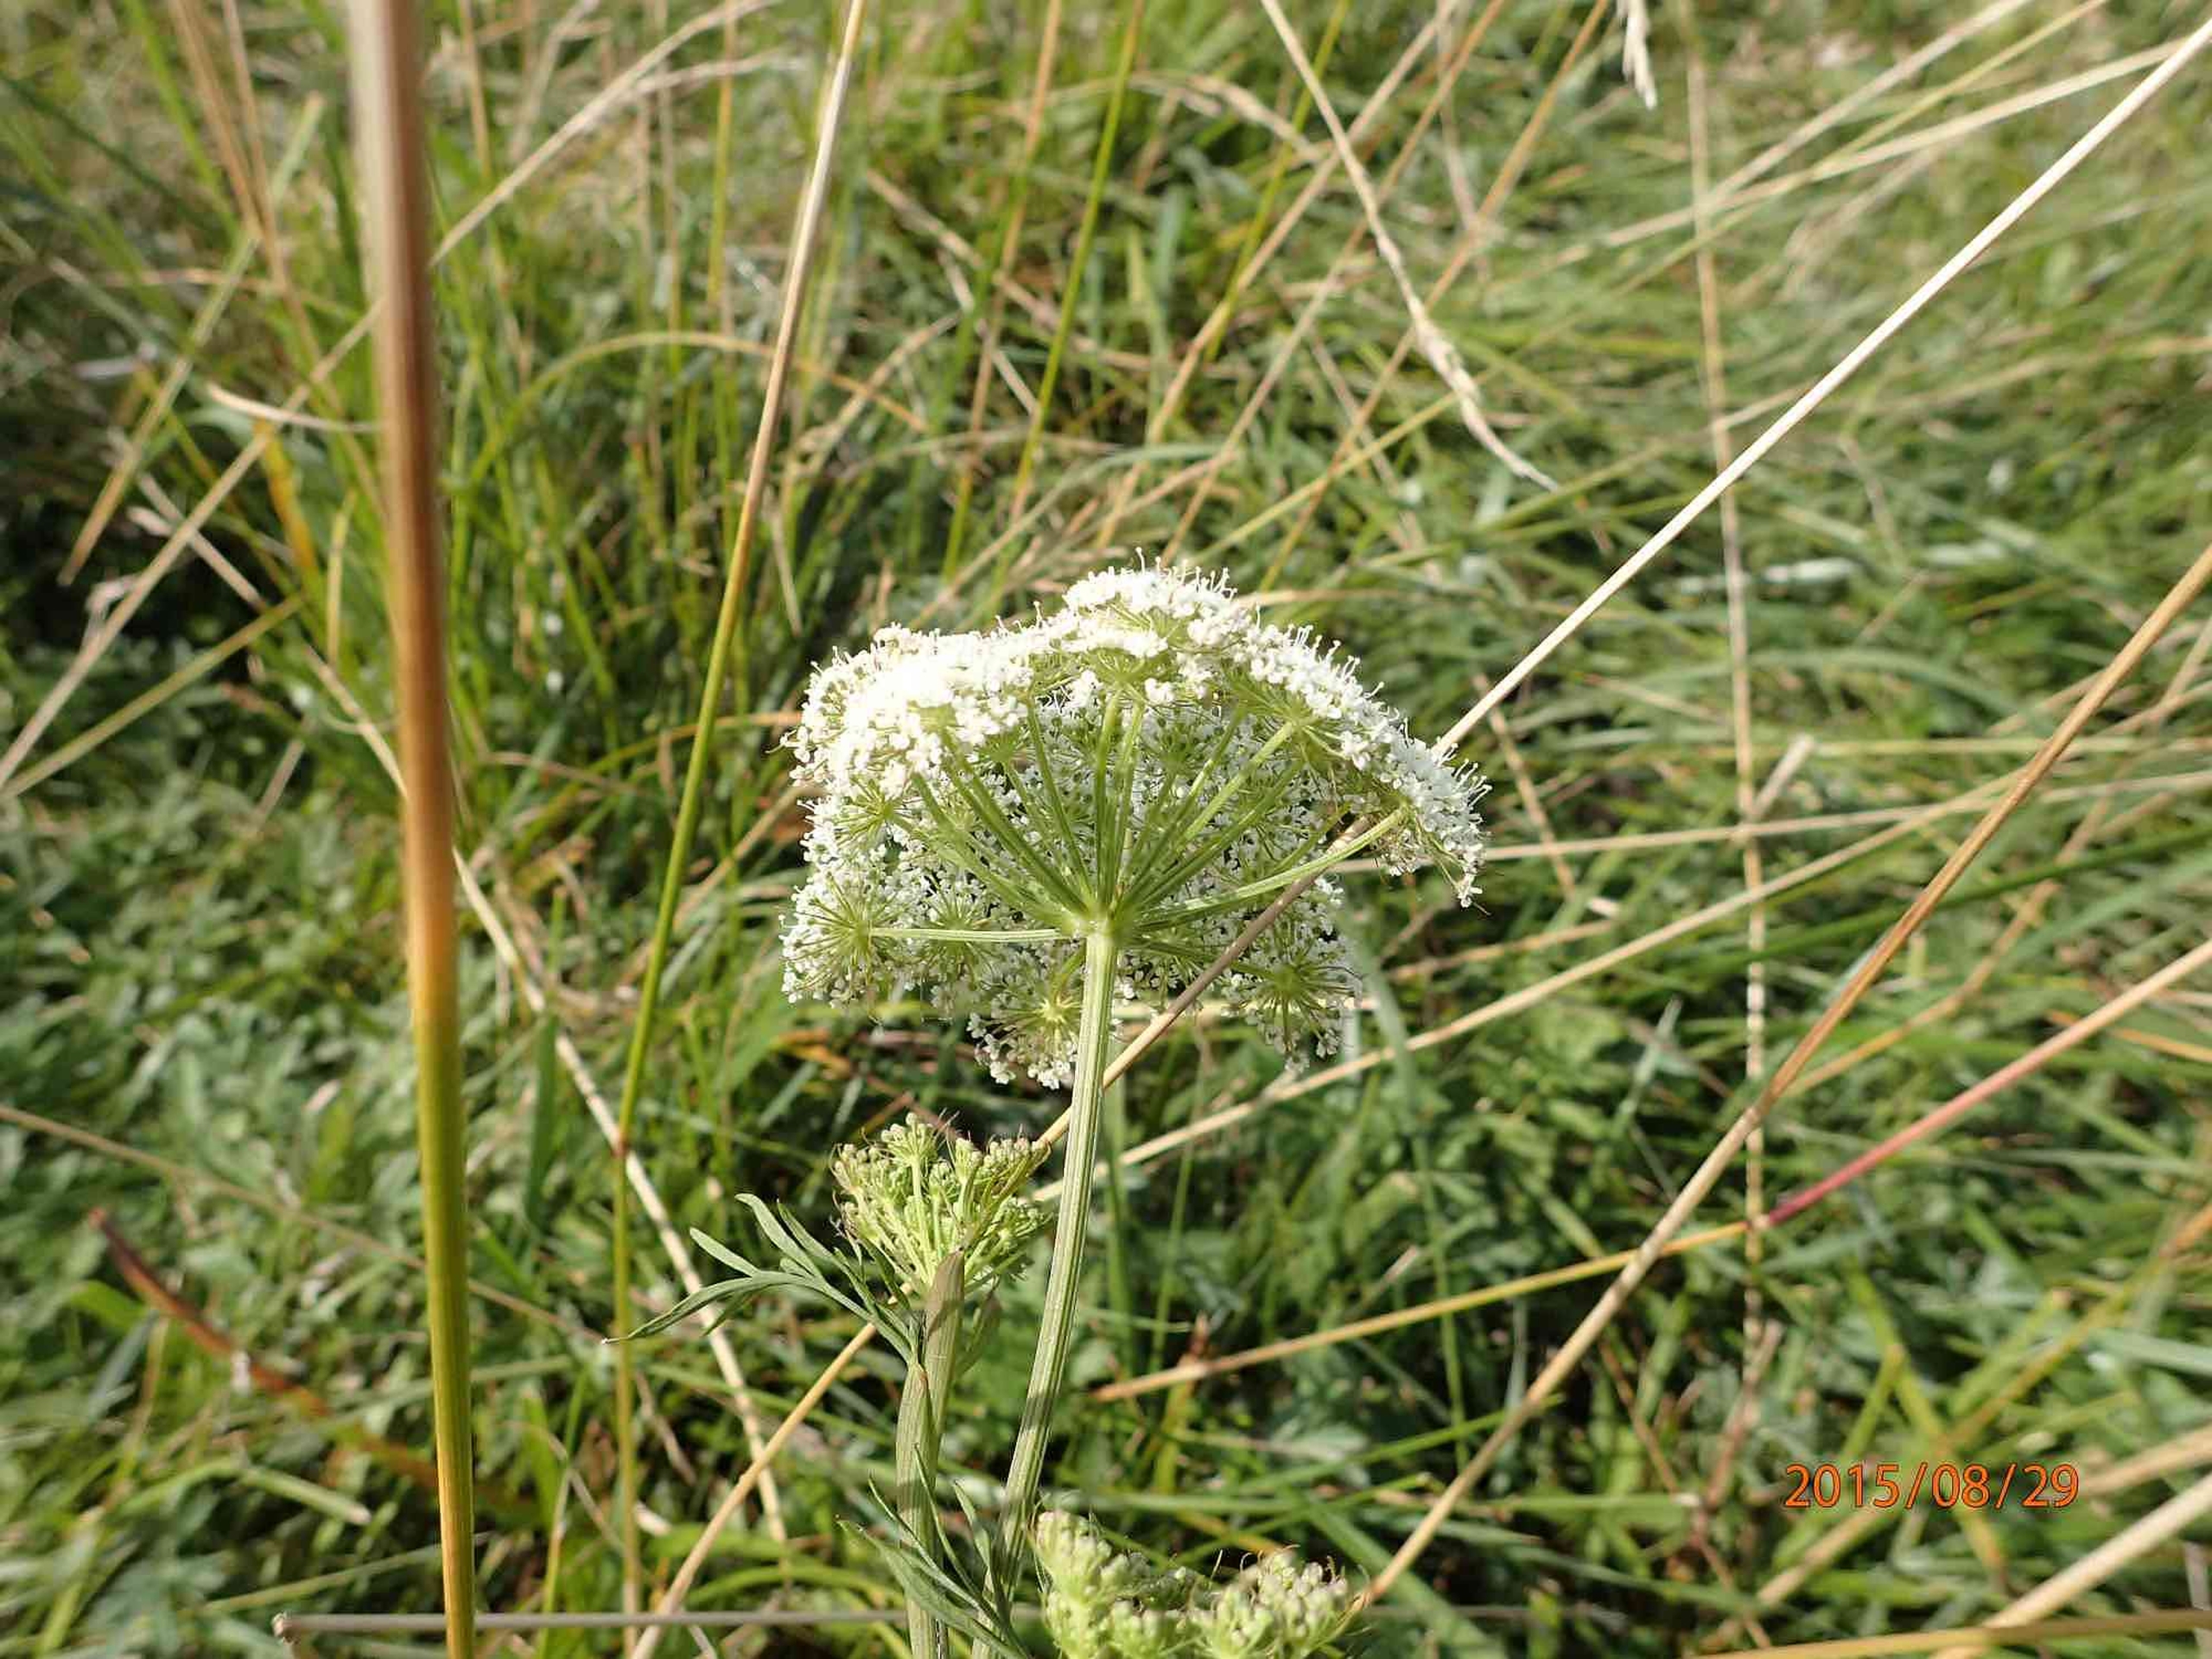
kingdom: Plantae
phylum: Tracheophyta
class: Magnoliopsida
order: Apiales
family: Apiaceae
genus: Kadenia
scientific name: Kadenia dubia
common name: Brændeskærm
